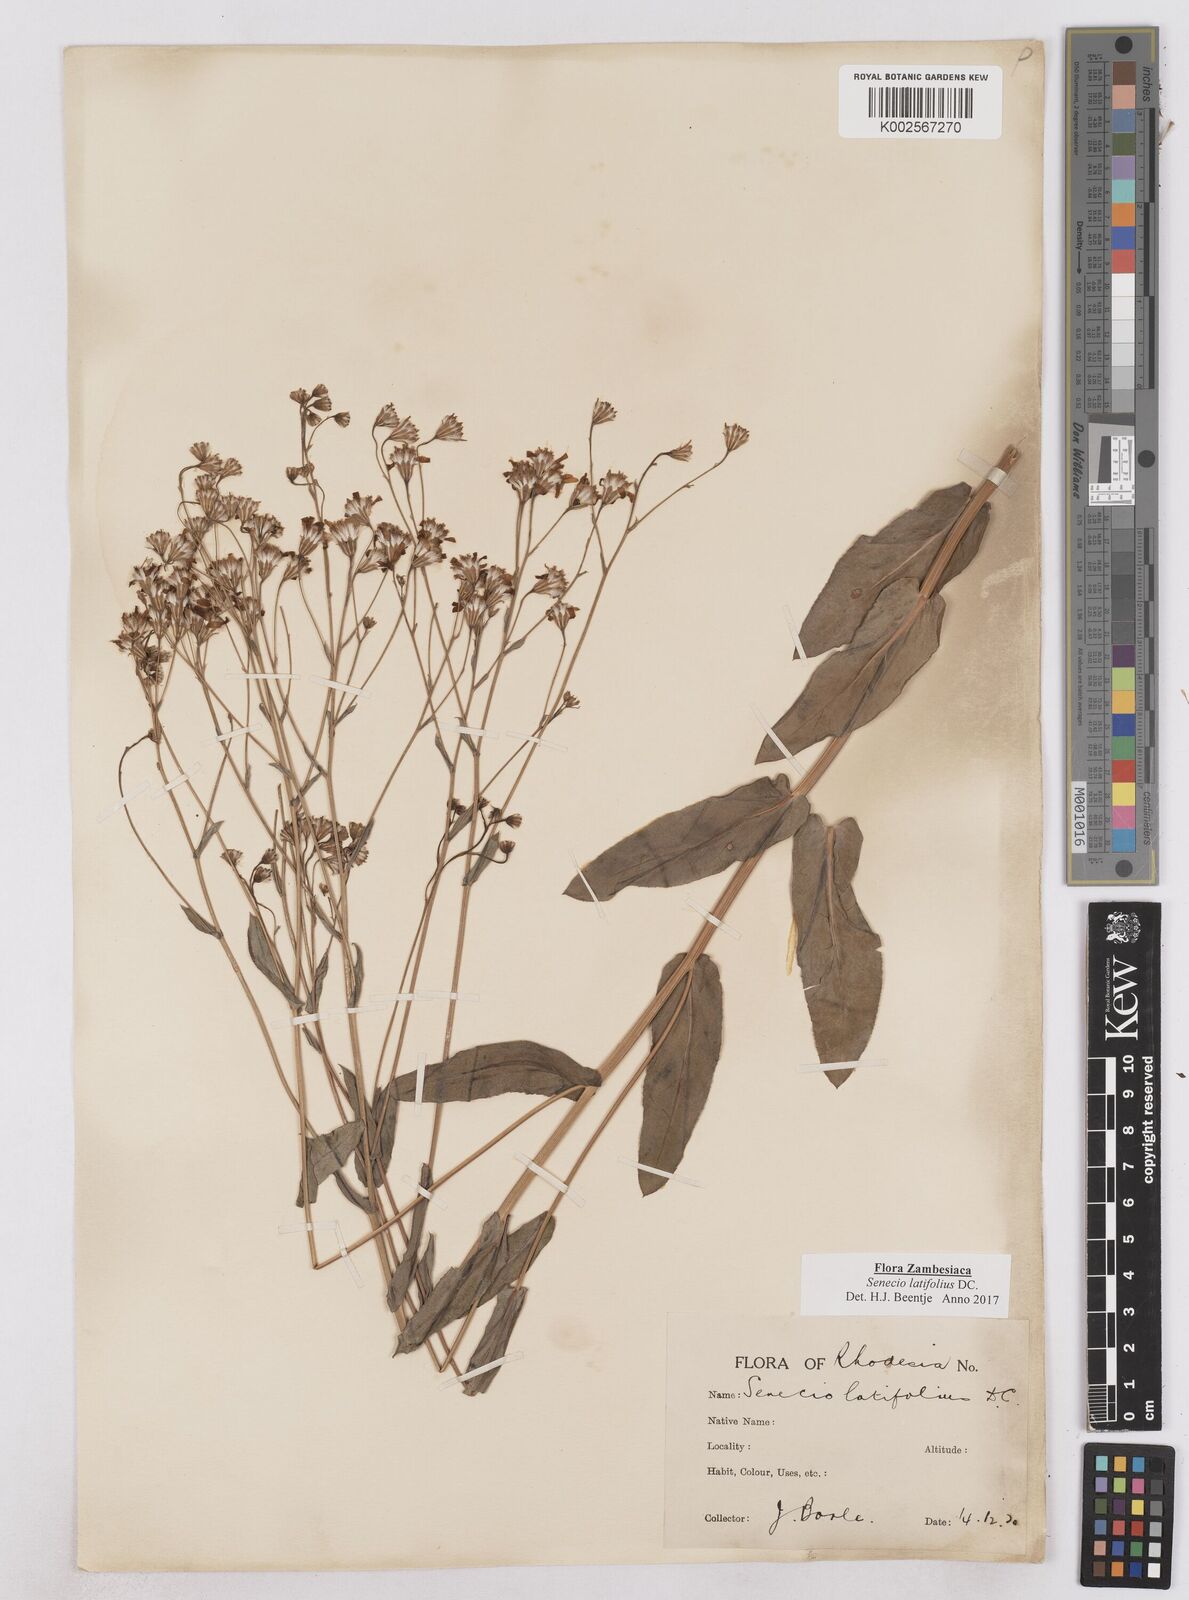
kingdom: Plantae
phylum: Tracheophyta
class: Magnoliopsida
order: Asterales
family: Asteraceae
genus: Senecio
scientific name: Senecio latifolius
